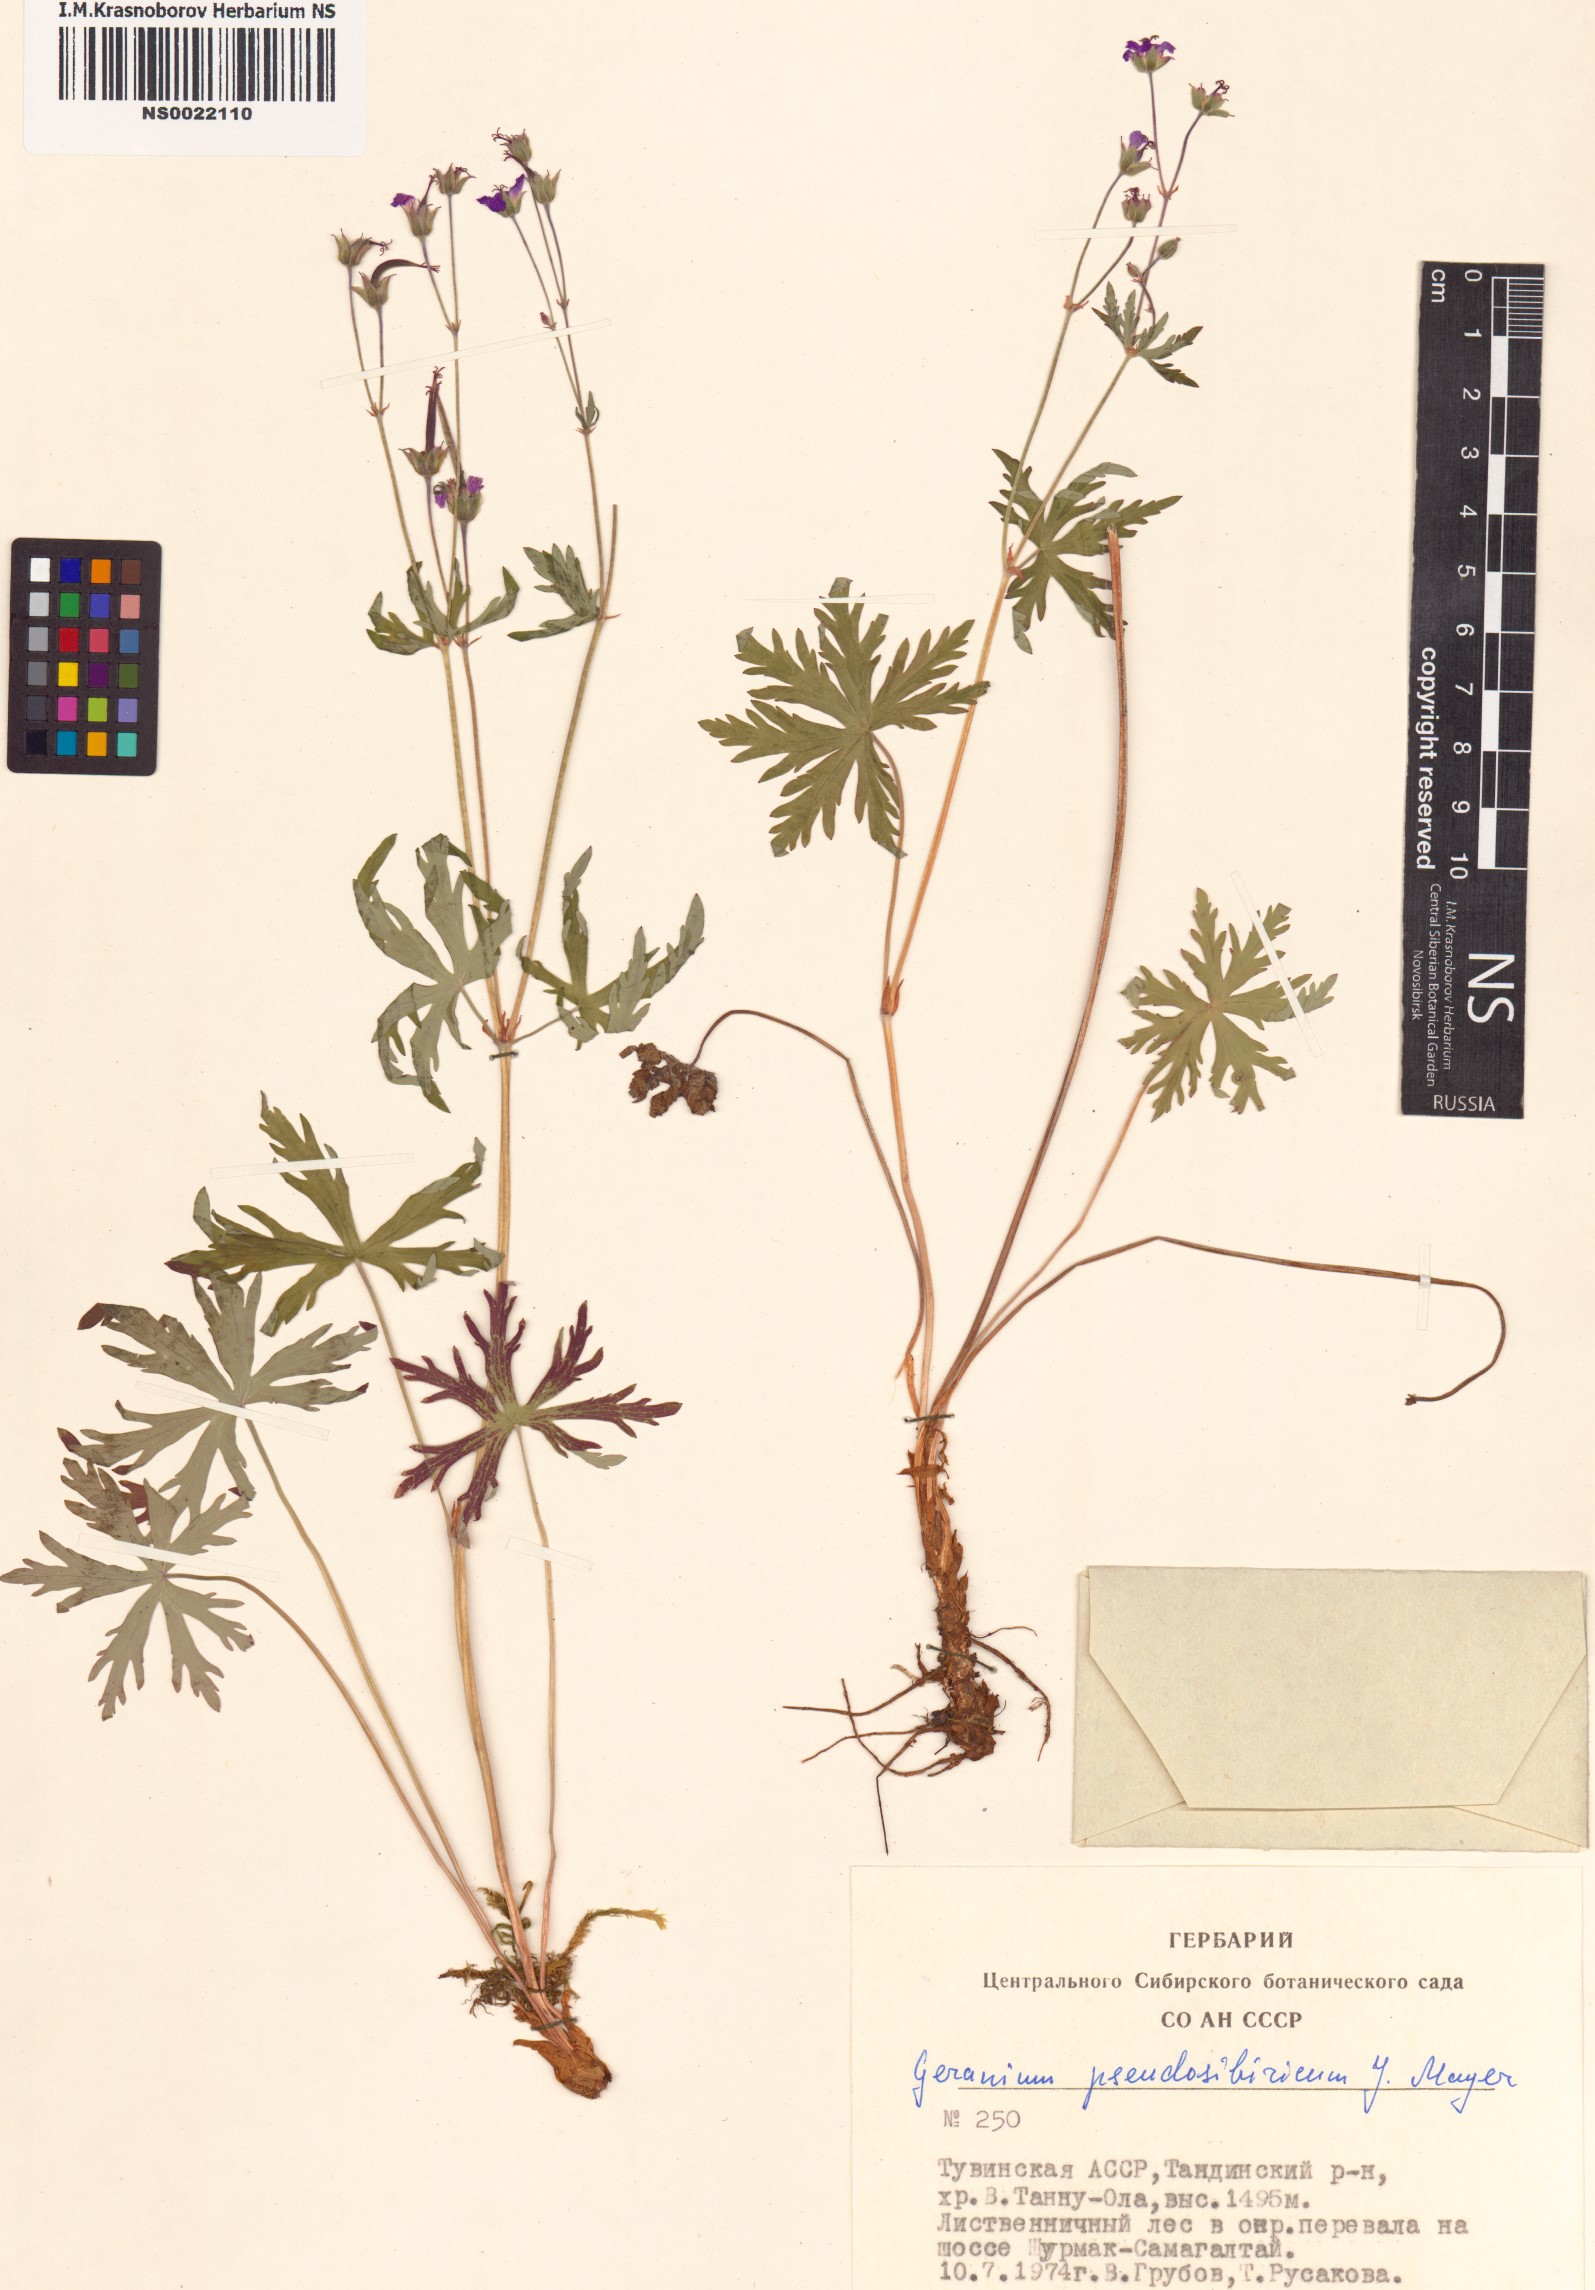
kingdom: Plantae
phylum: Tracheophyta
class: Magnoliopsida
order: Geraniales
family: Geraniaceae
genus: Geranium
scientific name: Geranium pseudosibiricum
